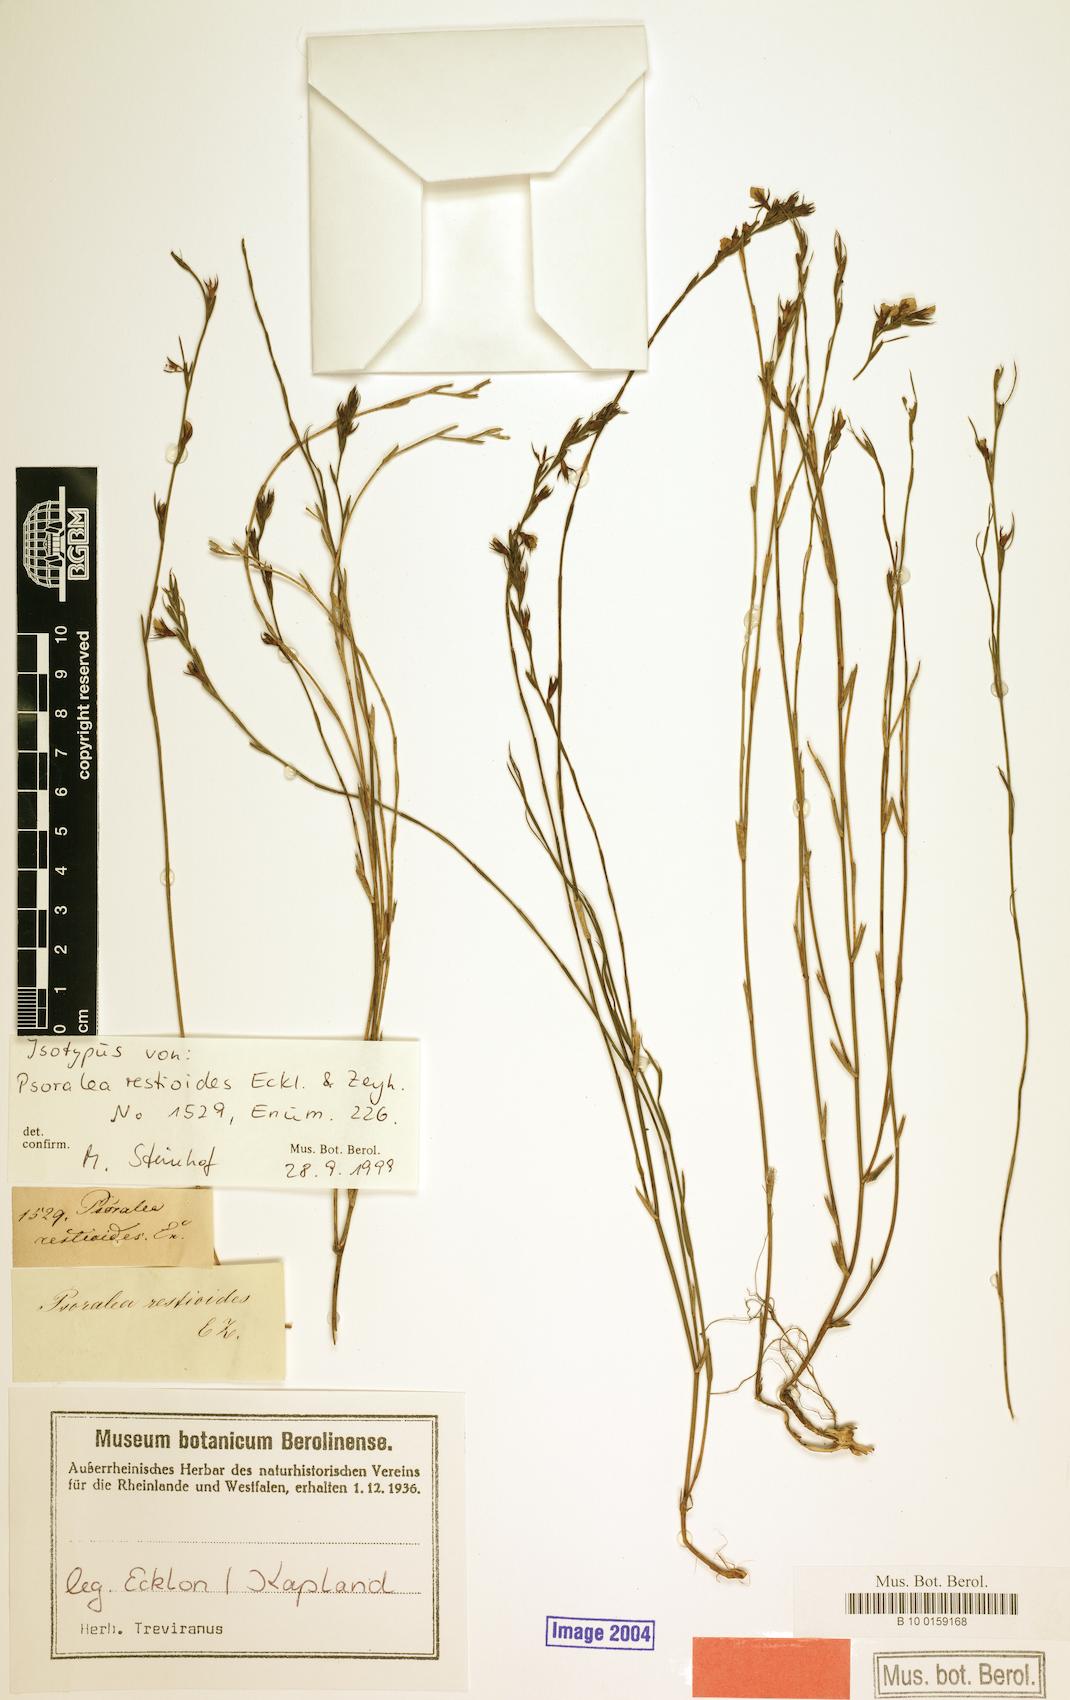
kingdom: Plantae
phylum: Tracheophyta
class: Magnoliopsida
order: Fabales
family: Fabaceae
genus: Psoralea
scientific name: Psoralea restioides
